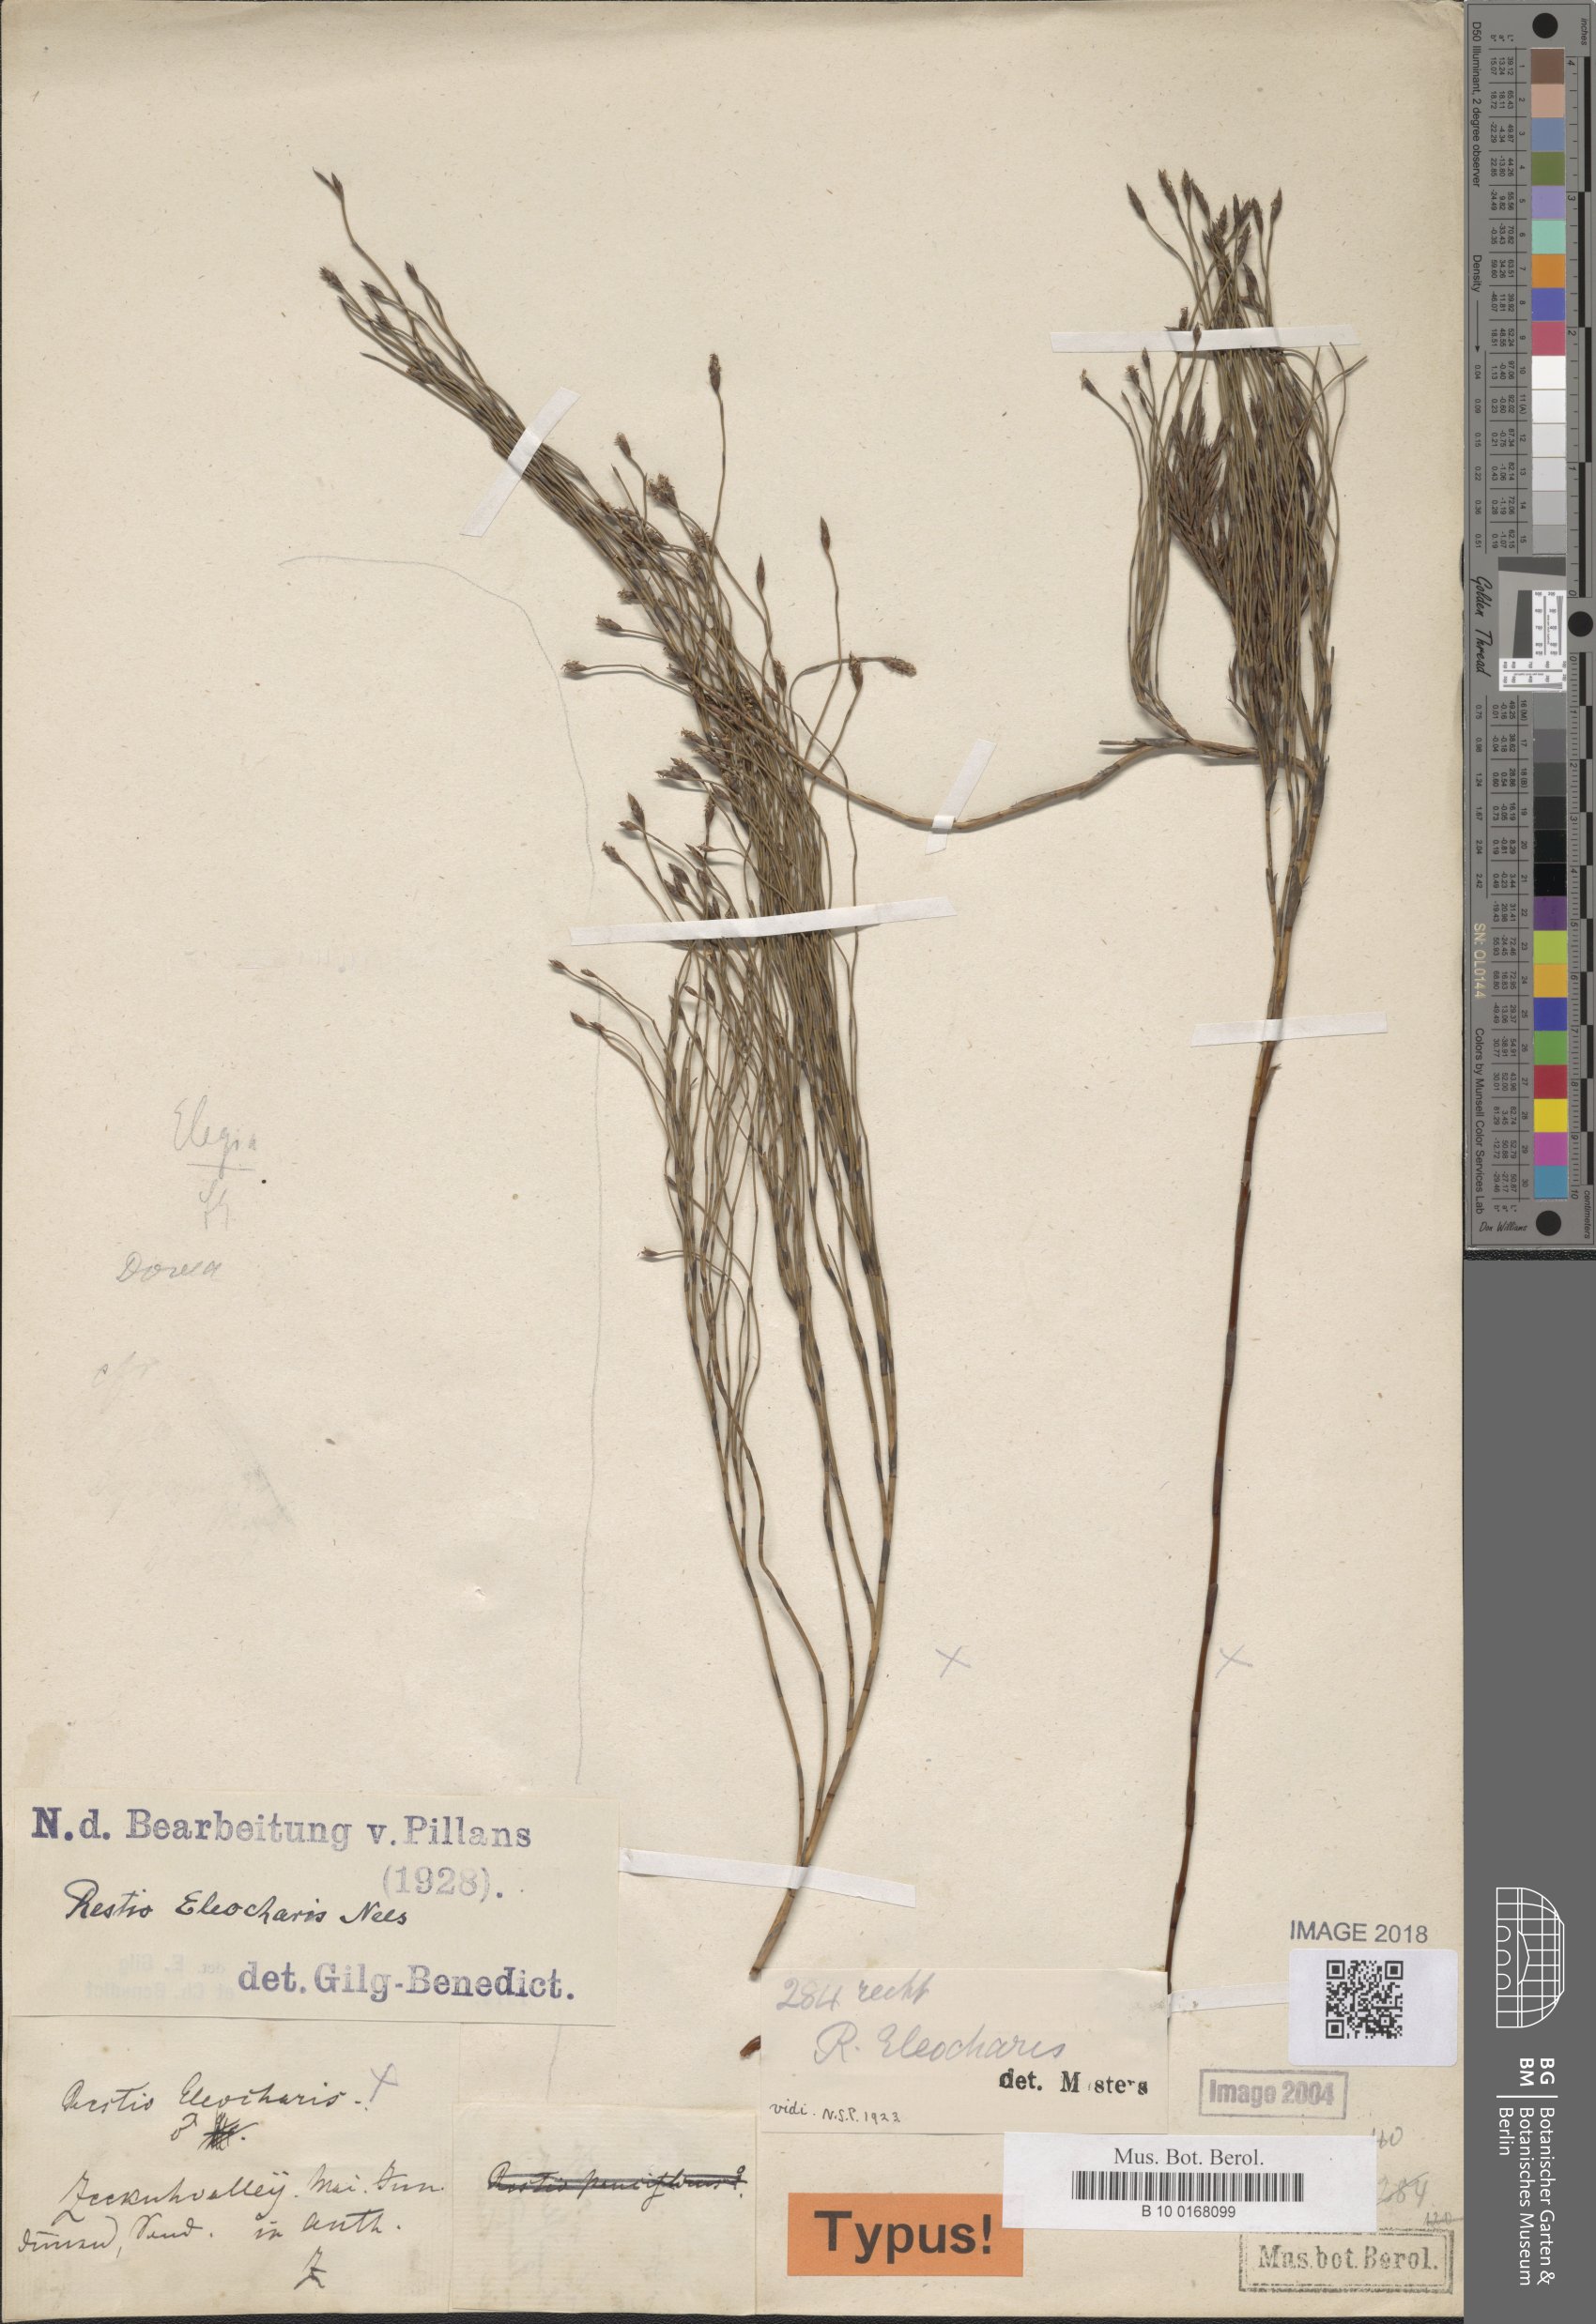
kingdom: Plantae
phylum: Tracheophyta
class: Liliopsida
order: Poales
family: Restionaceae
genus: Restio
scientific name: Restio eleocharis
